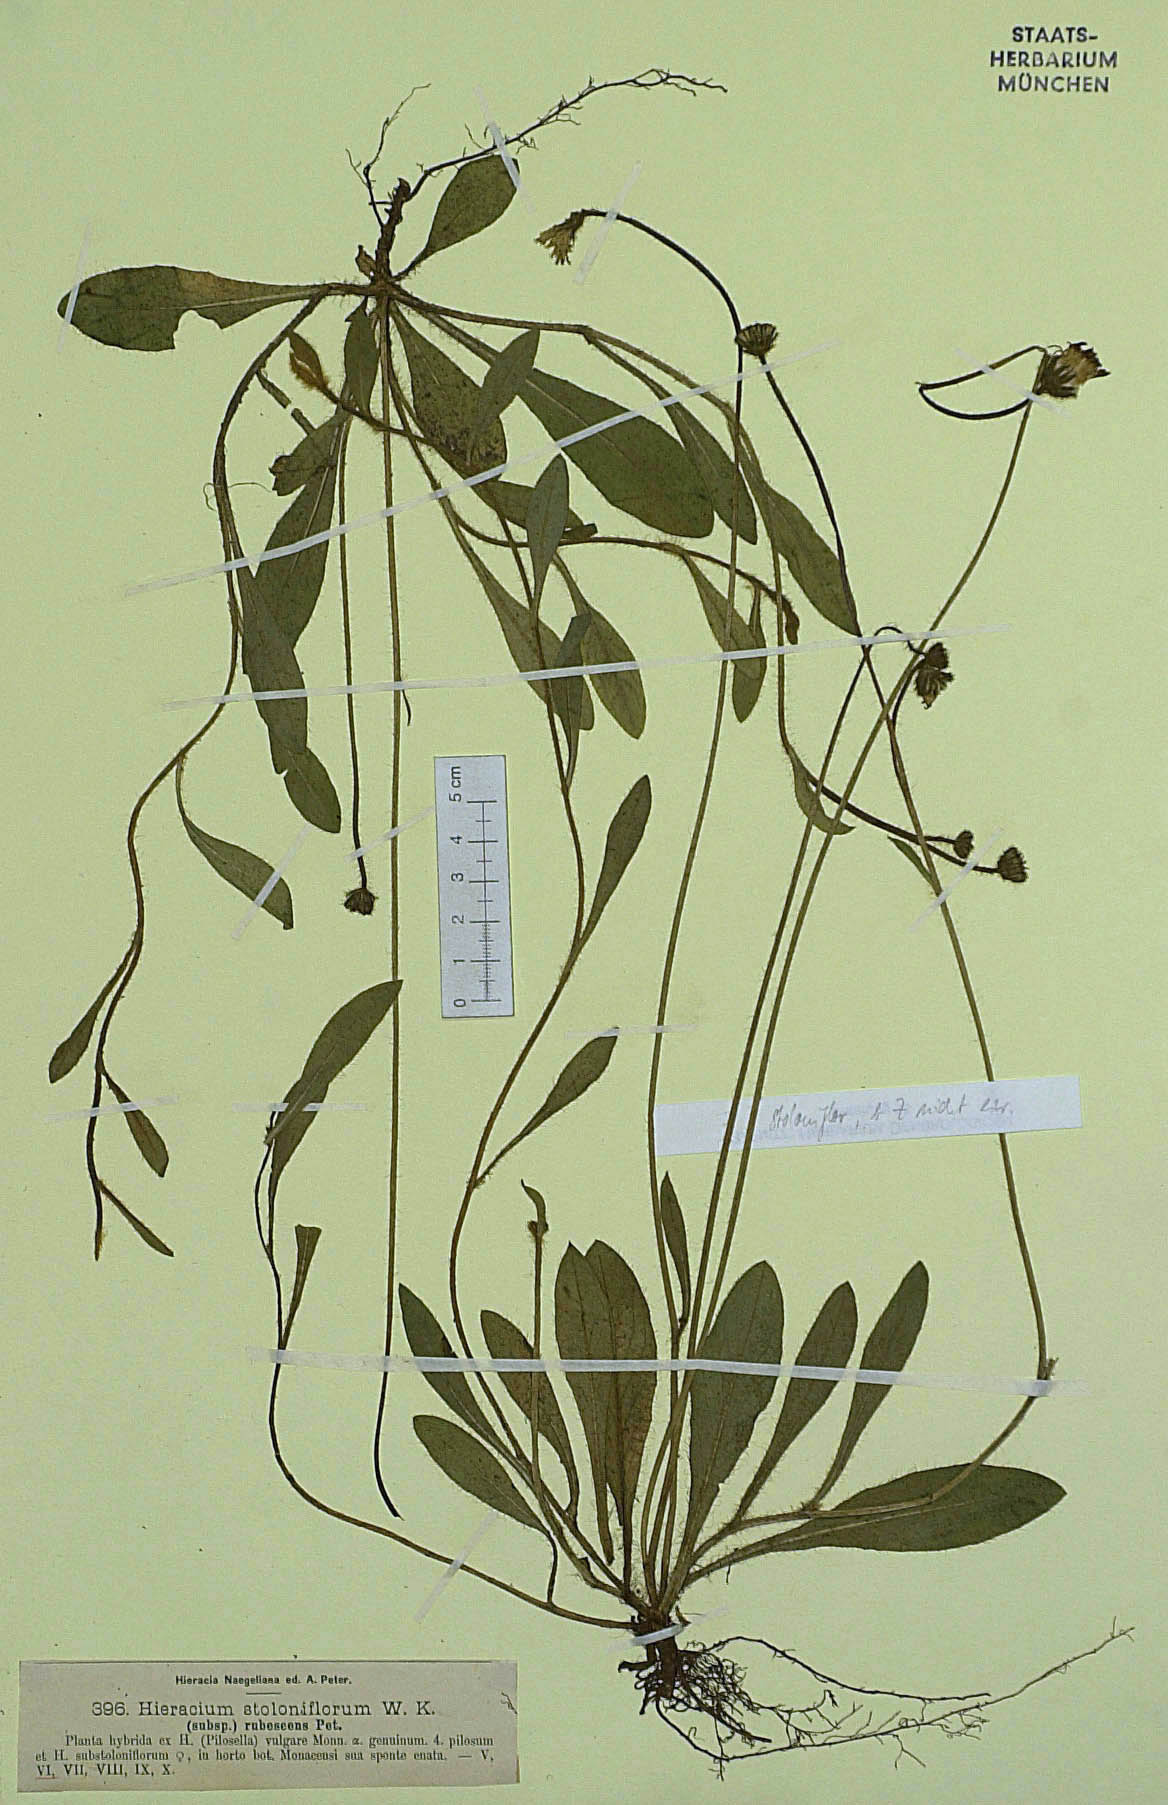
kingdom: Plantae
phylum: Tracheophyta
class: Magnoliopsida
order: Asterales
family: Asteraceae
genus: Pilosella
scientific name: Pilosella substoloniflora
